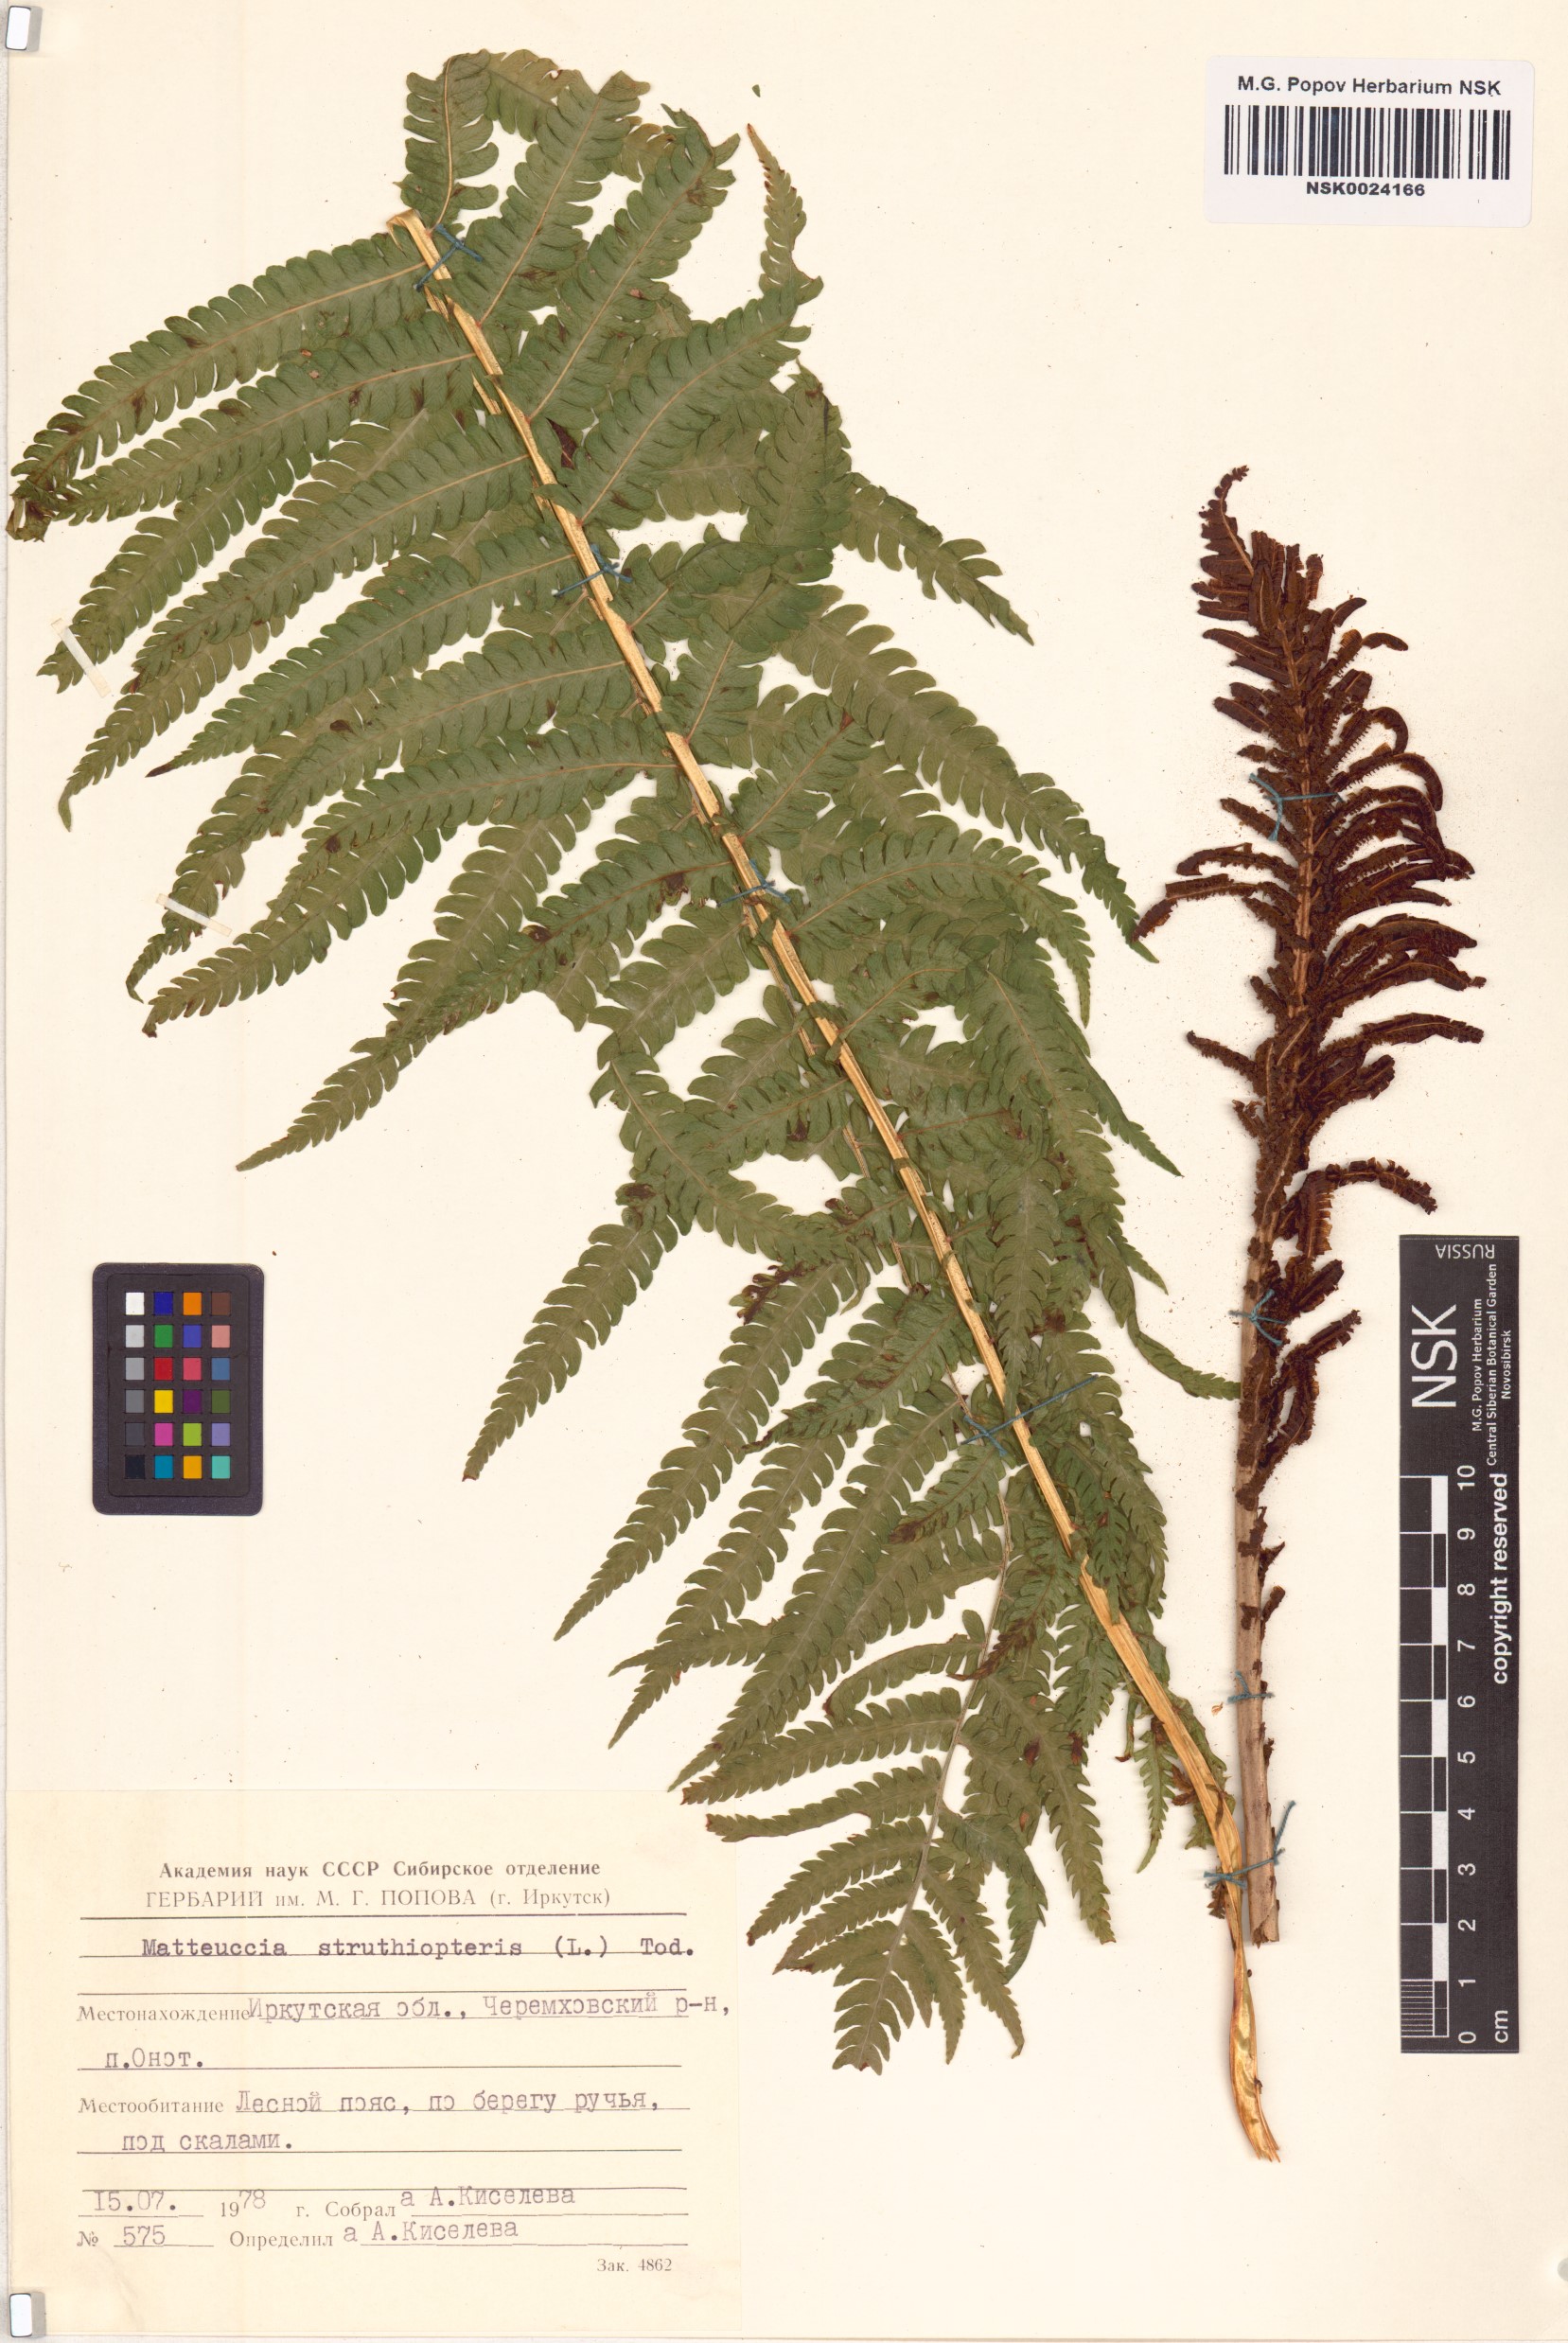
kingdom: Plantae
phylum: Tracheophyta
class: Polypodiopsida
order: Polypodiales
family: Onocleaceae
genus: Matteuccia
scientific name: Matteuccia struthiopteris
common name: Ostrich fern
